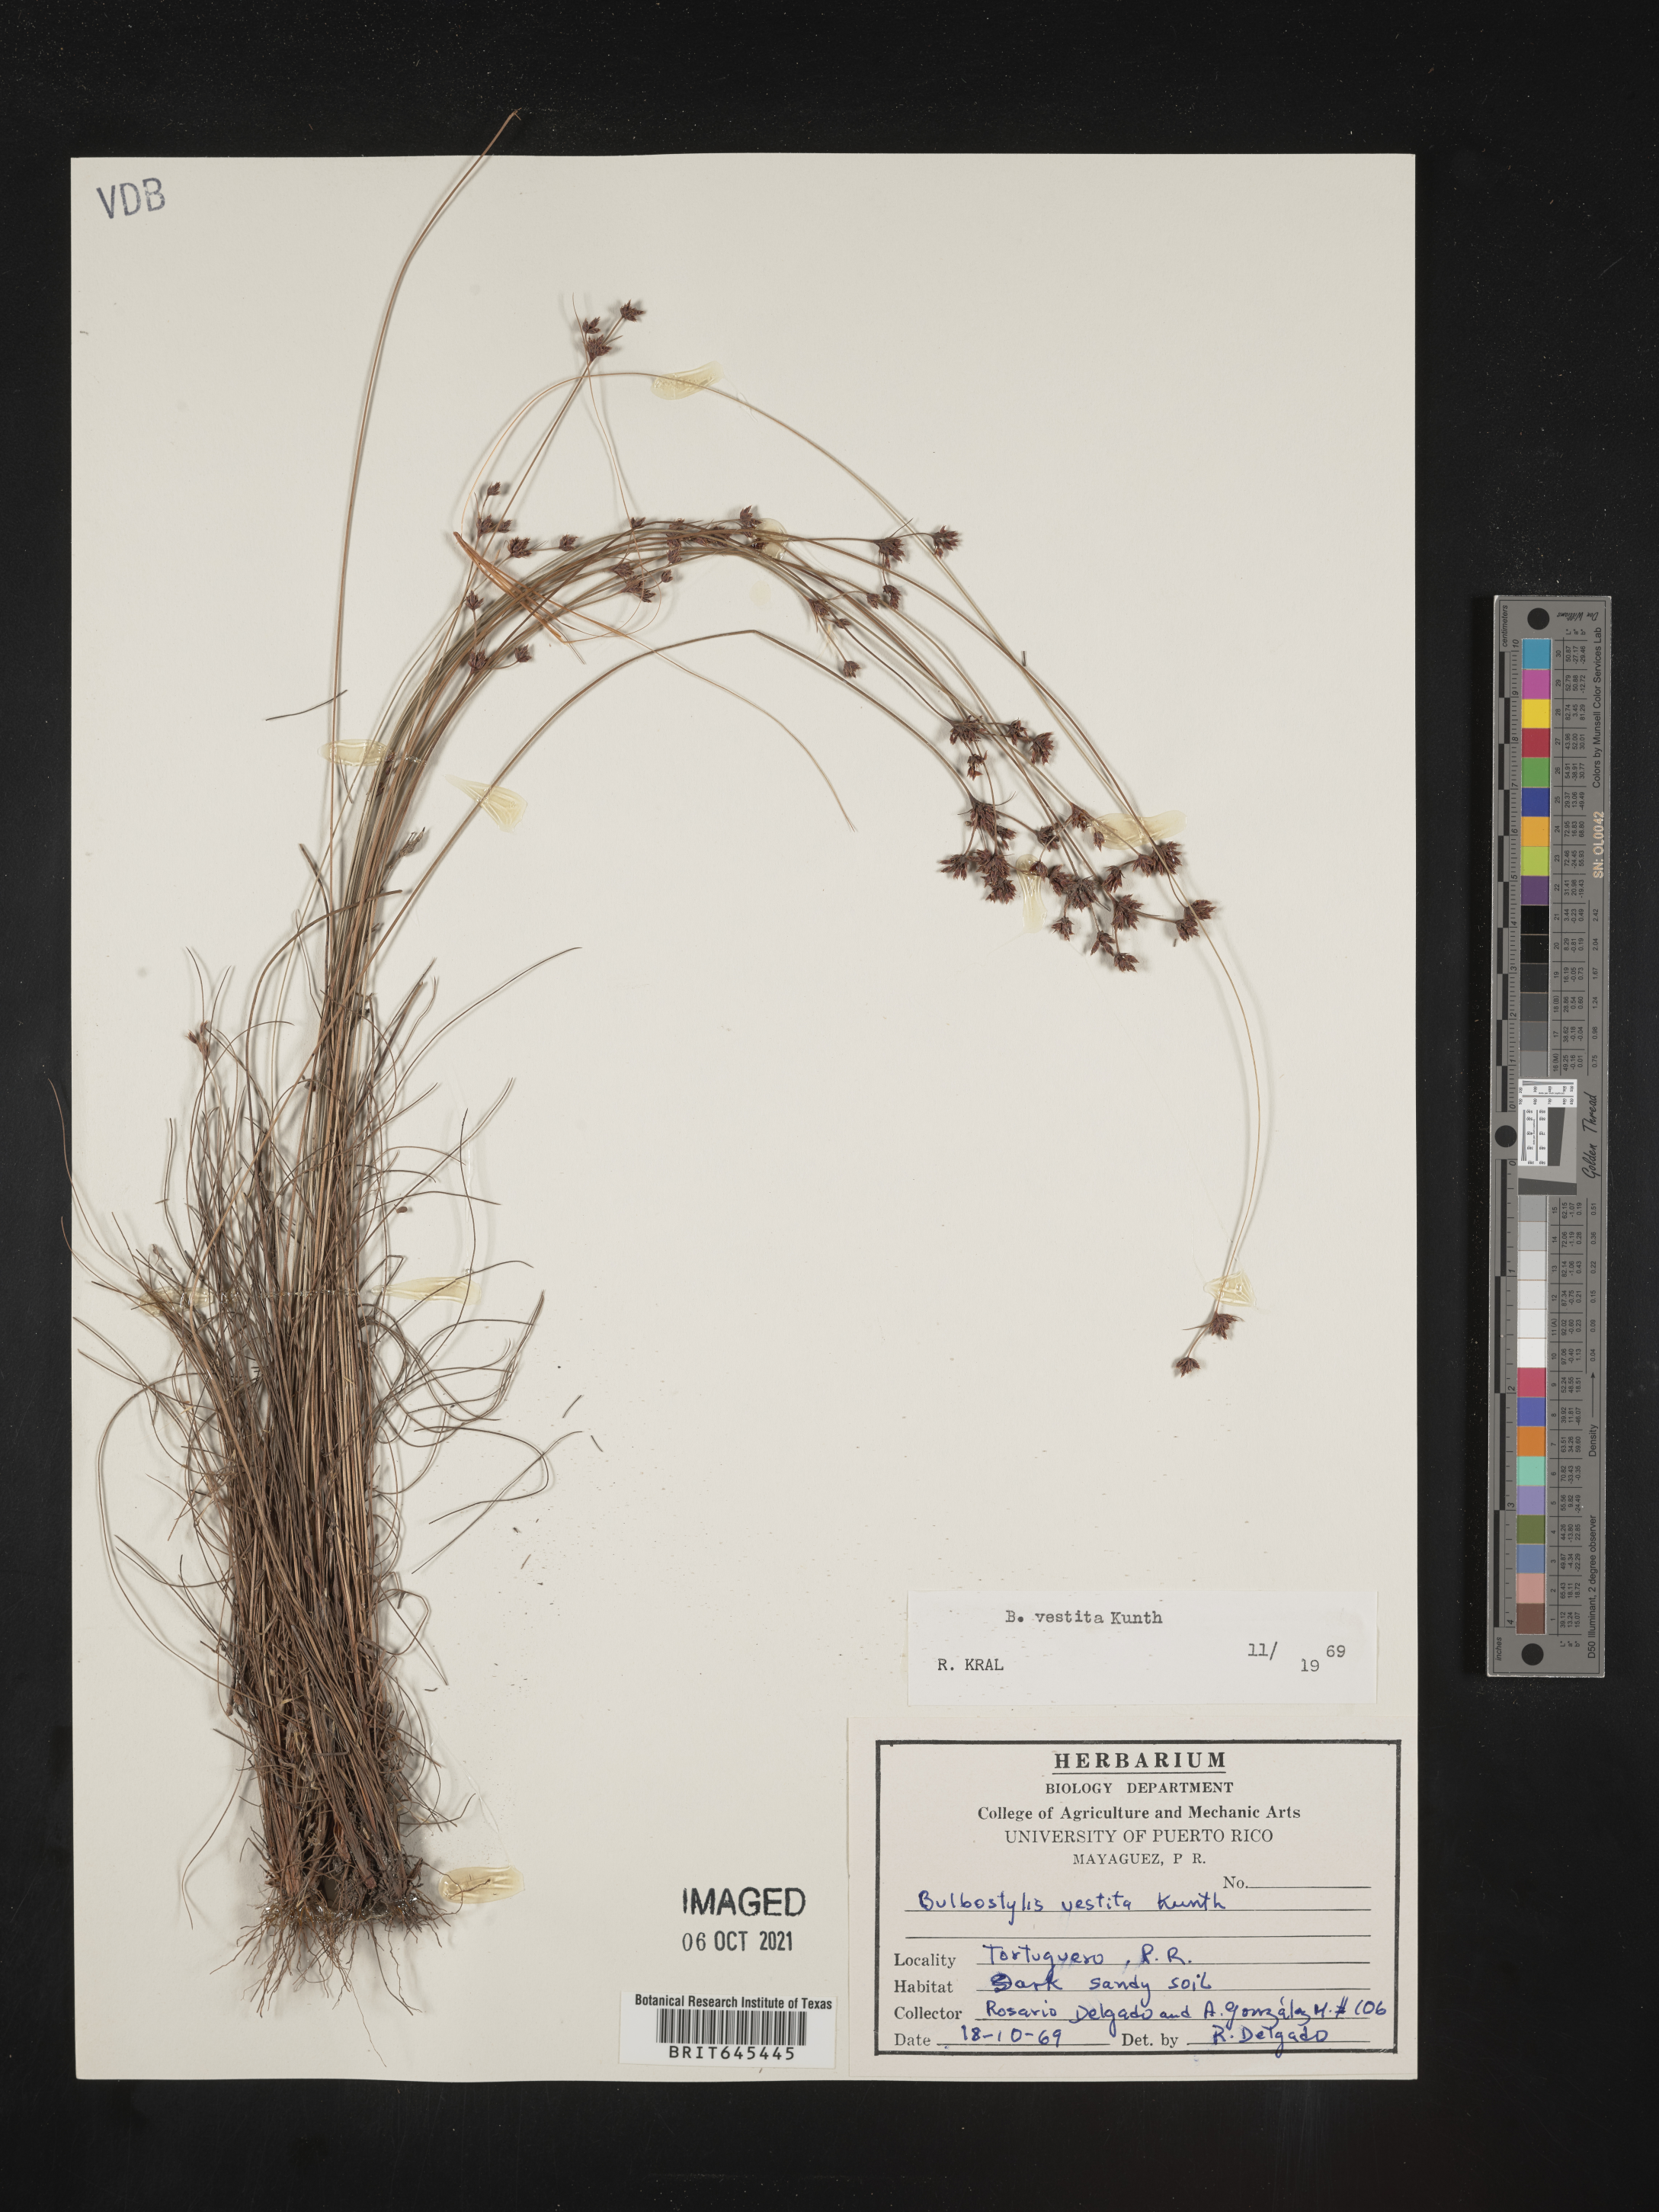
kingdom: Plantae
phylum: Tracheophyta
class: Liliopsida
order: Poales
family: Cyperaceae
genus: Bulbostylis
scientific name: Bulbostylis vestita
